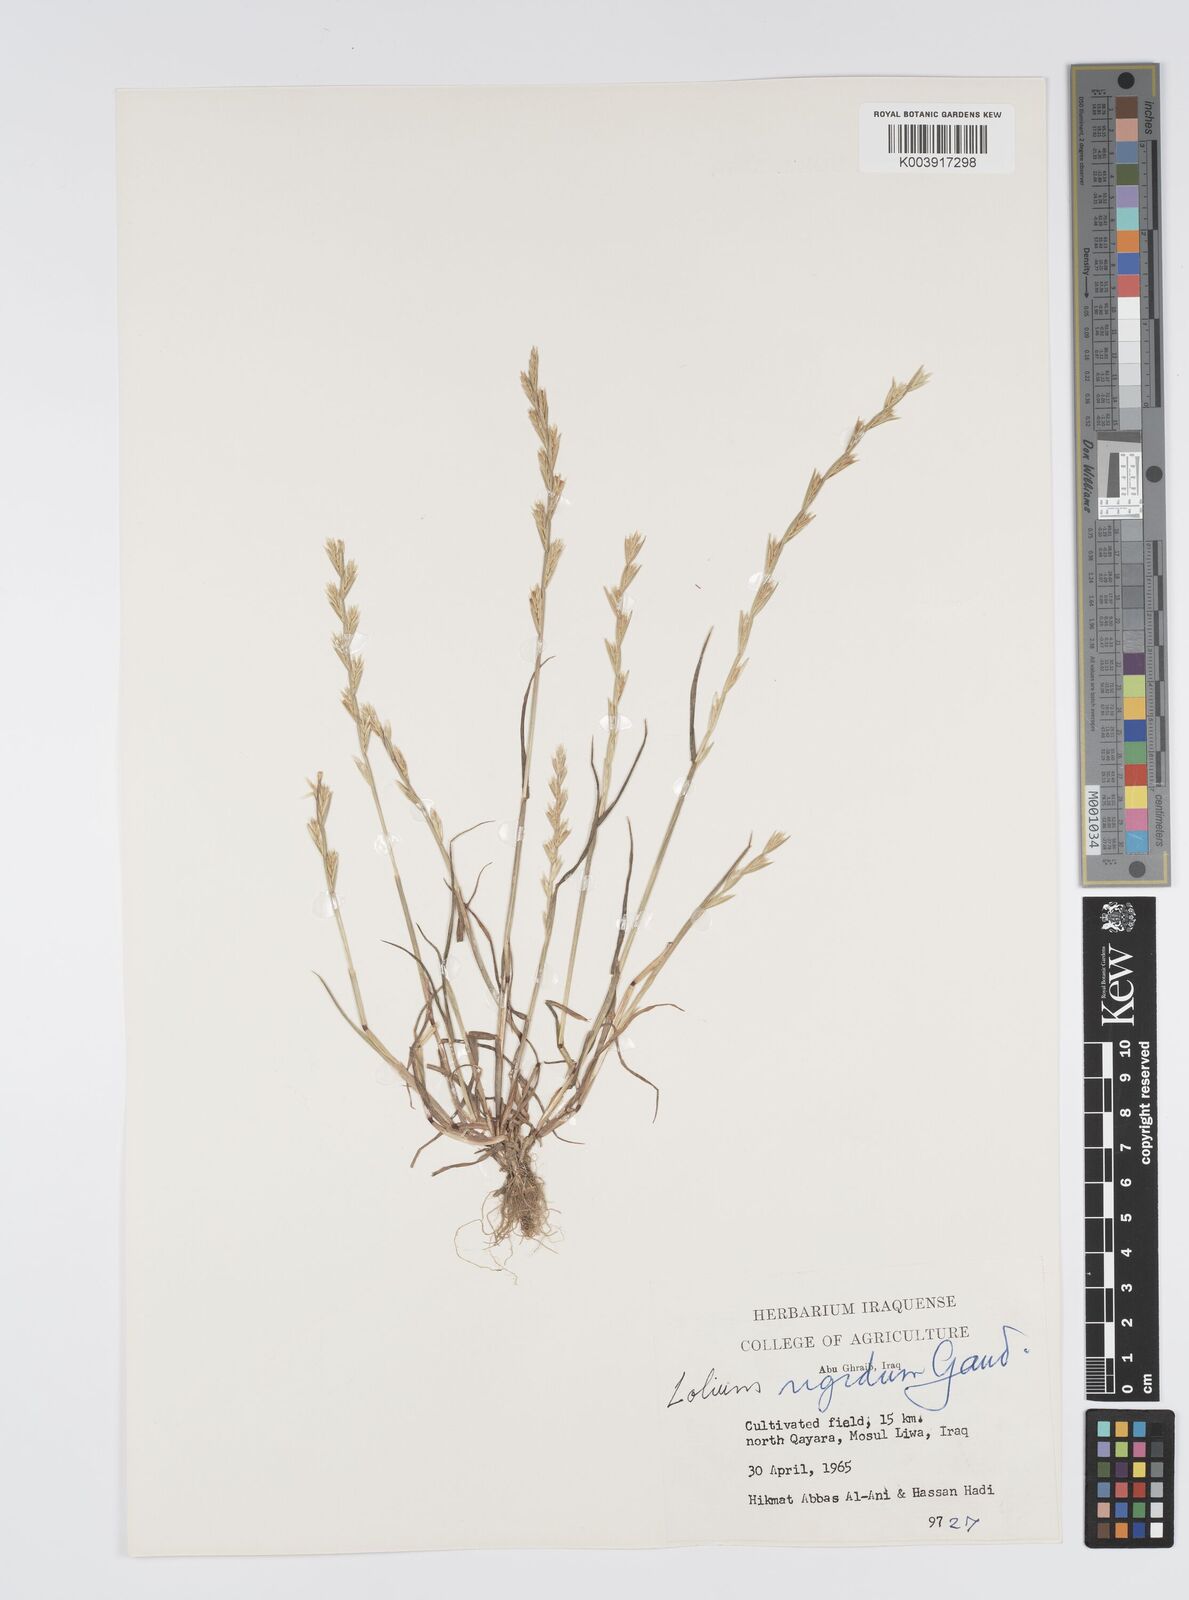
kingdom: Plantae
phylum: Tracheophyta
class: Liliopsida
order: Poales
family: Poaceae
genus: Lolium
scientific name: Lolium rigidum
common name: Wimmera ryegrass
